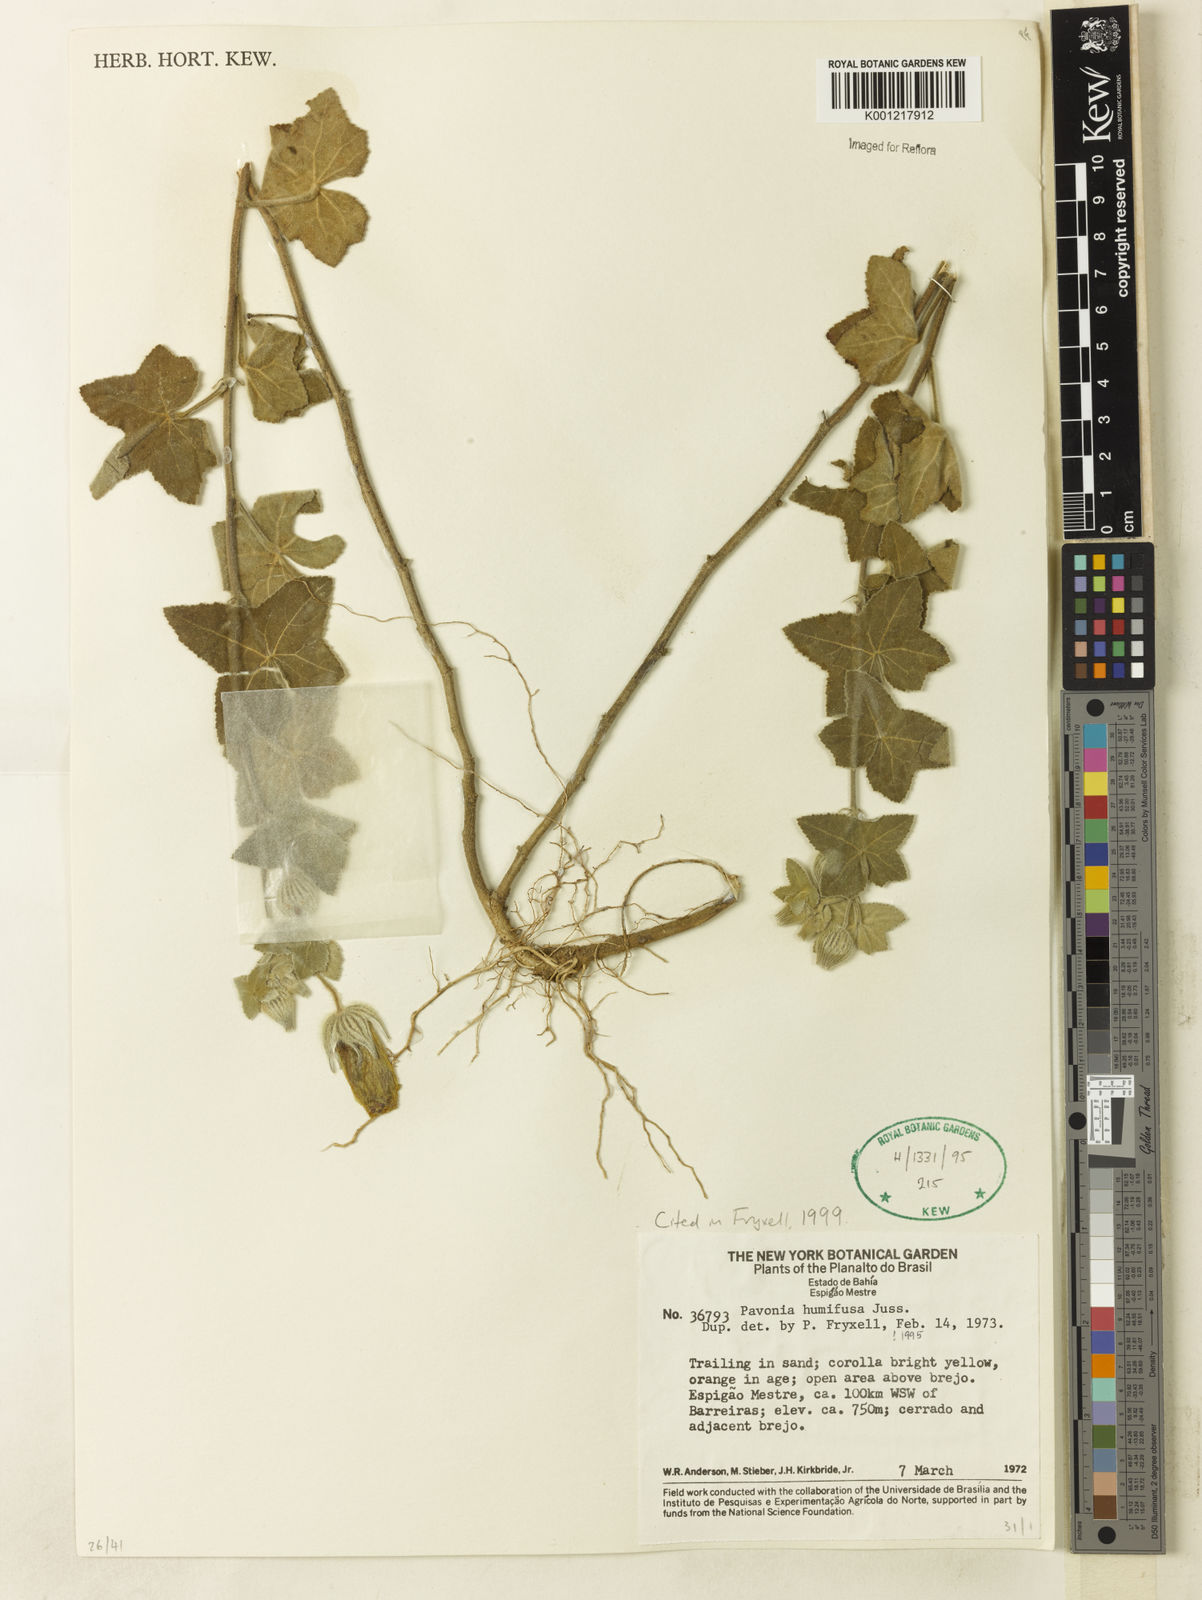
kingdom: Plantae
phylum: Tracheophyta
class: Magnoliopsida
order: Malvales
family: Malvaceae
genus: Pavonia
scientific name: Pavonia humifusa
